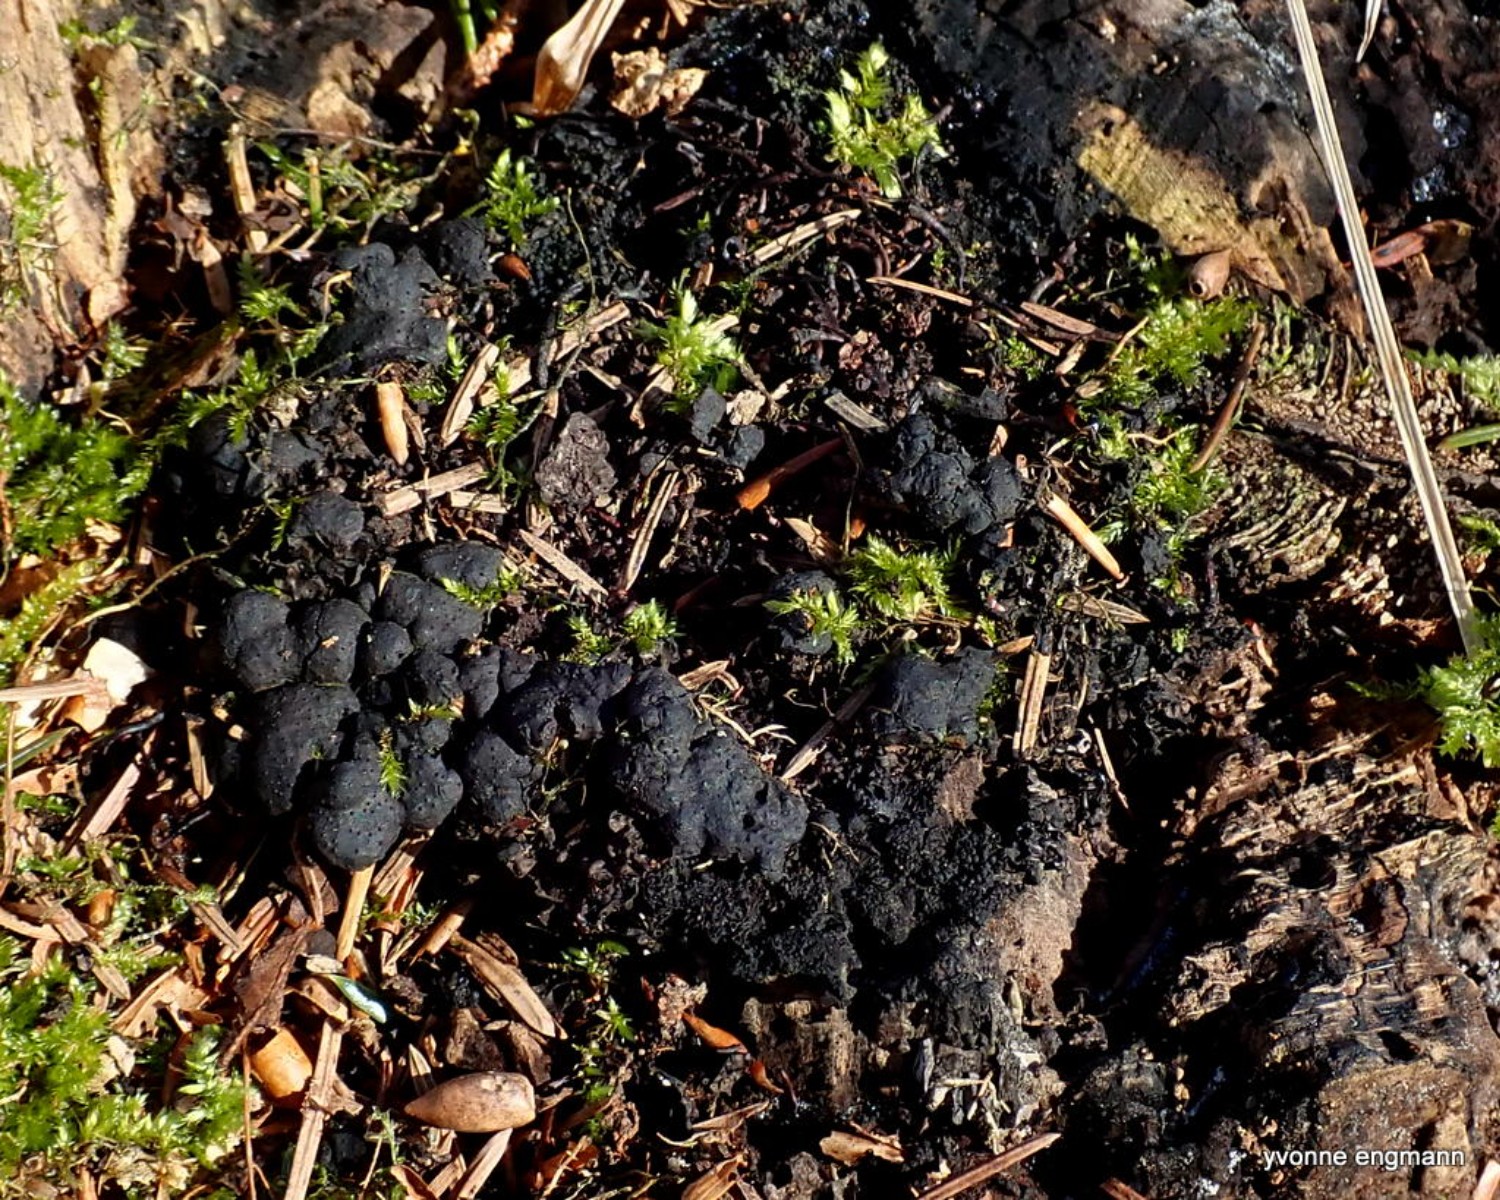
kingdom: Fungi
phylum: Ascomycota
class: Sordariomycetes
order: Xylariales
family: Xylariaceae
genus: Kretzschmaria
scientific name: Kretzschmaria deusta
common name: stor kulsvamp
